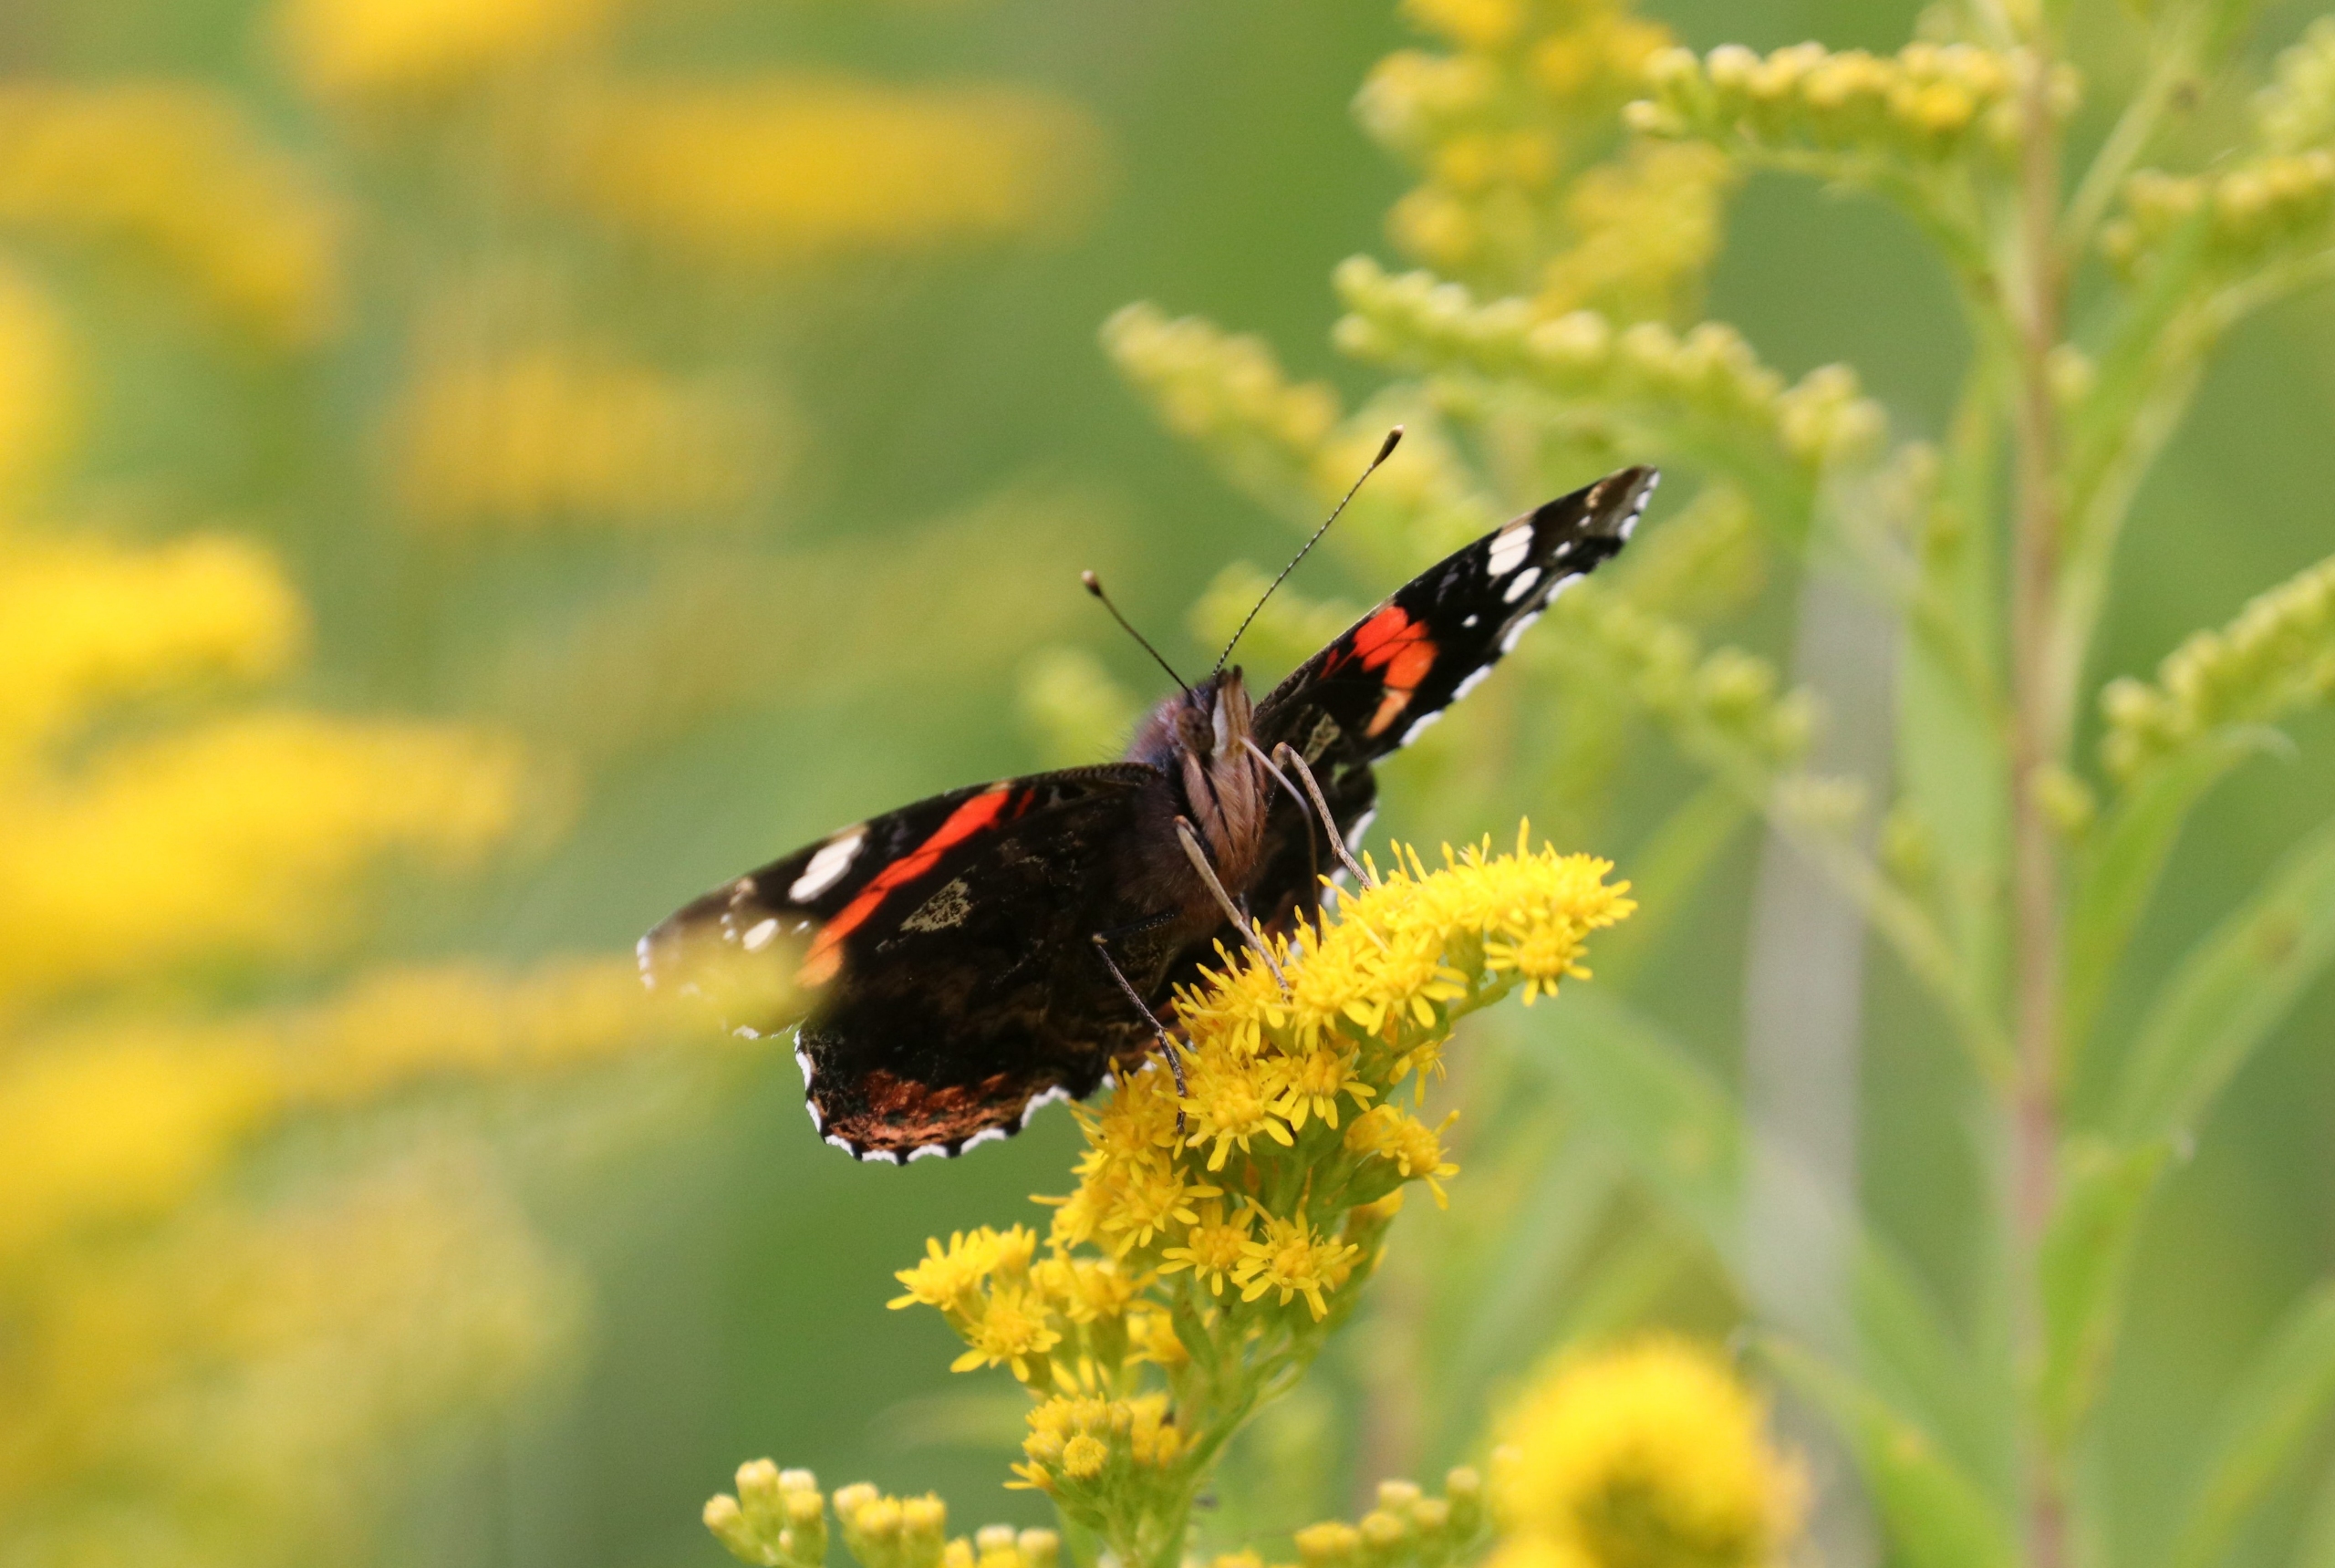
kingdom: Animalia
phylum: Arthropoda
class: Insecta
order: Lepidoptera
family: Nymphalidae
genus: Vanessa
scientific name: Vanessa atalanta
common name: Admiral
